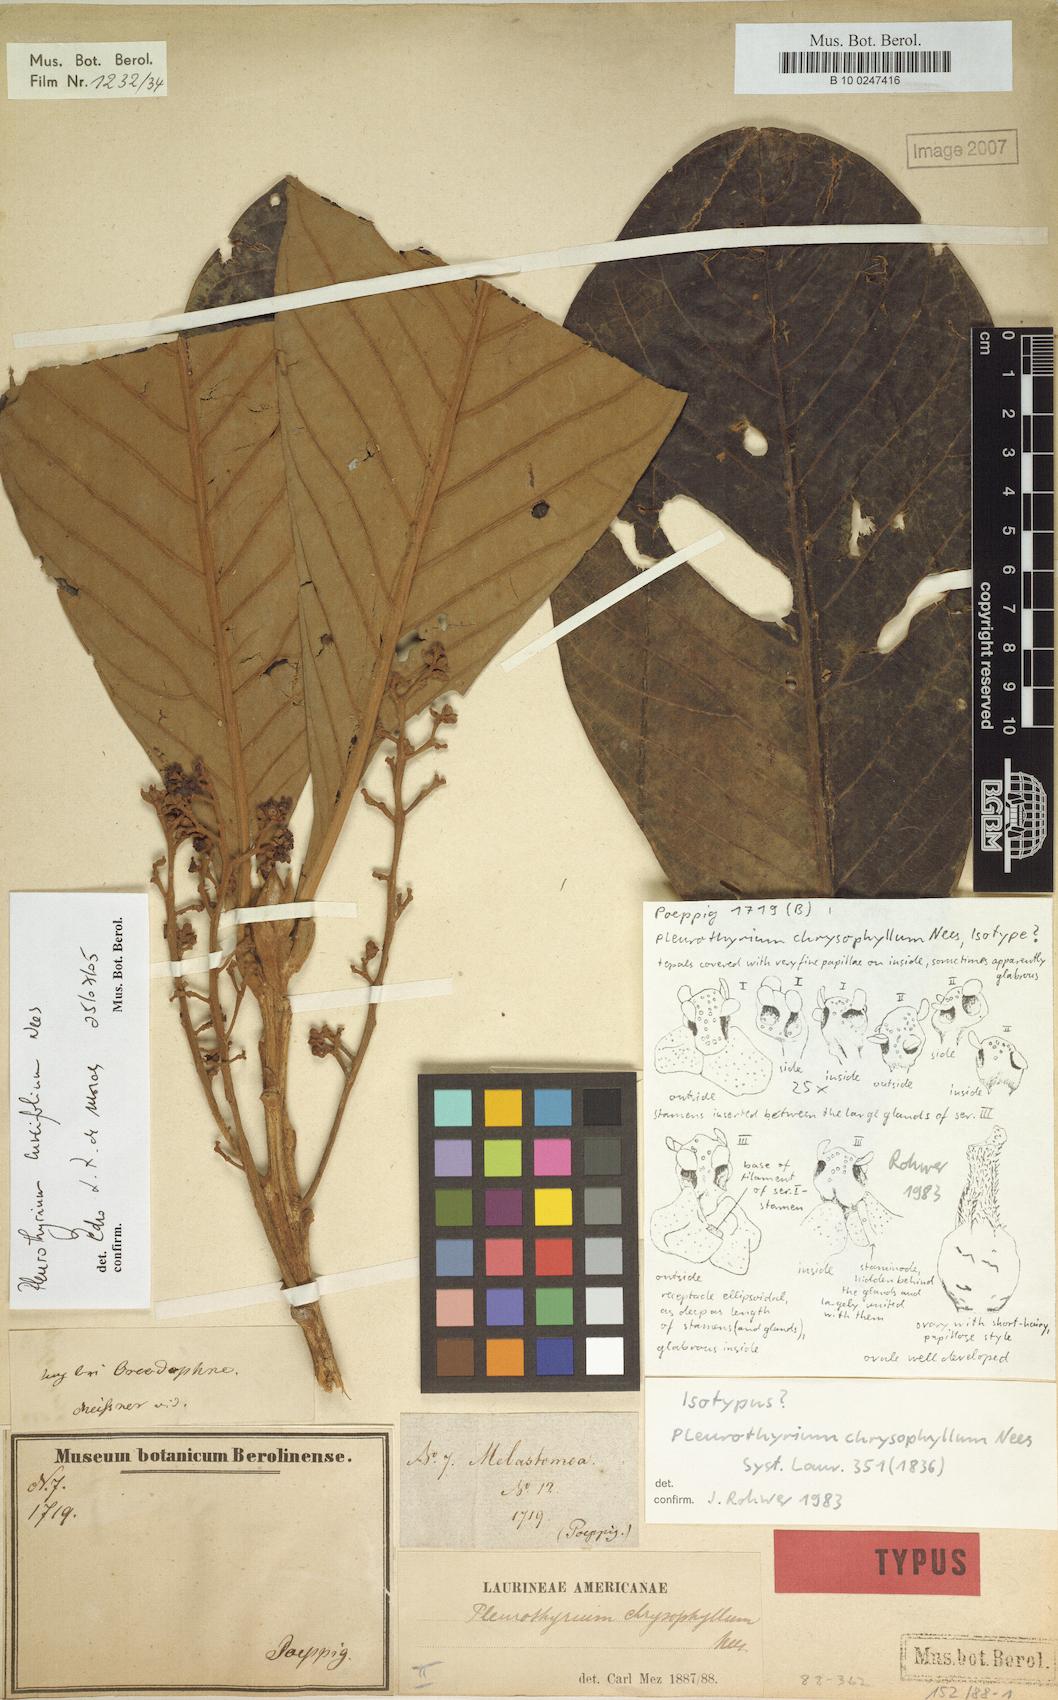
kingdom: Plantae
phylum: Tracheophyta
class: Magnoliopsida
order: Laurales
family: Lauraceae
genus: Pleurothyrium
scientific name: Pleurothyrium cuneifolium
